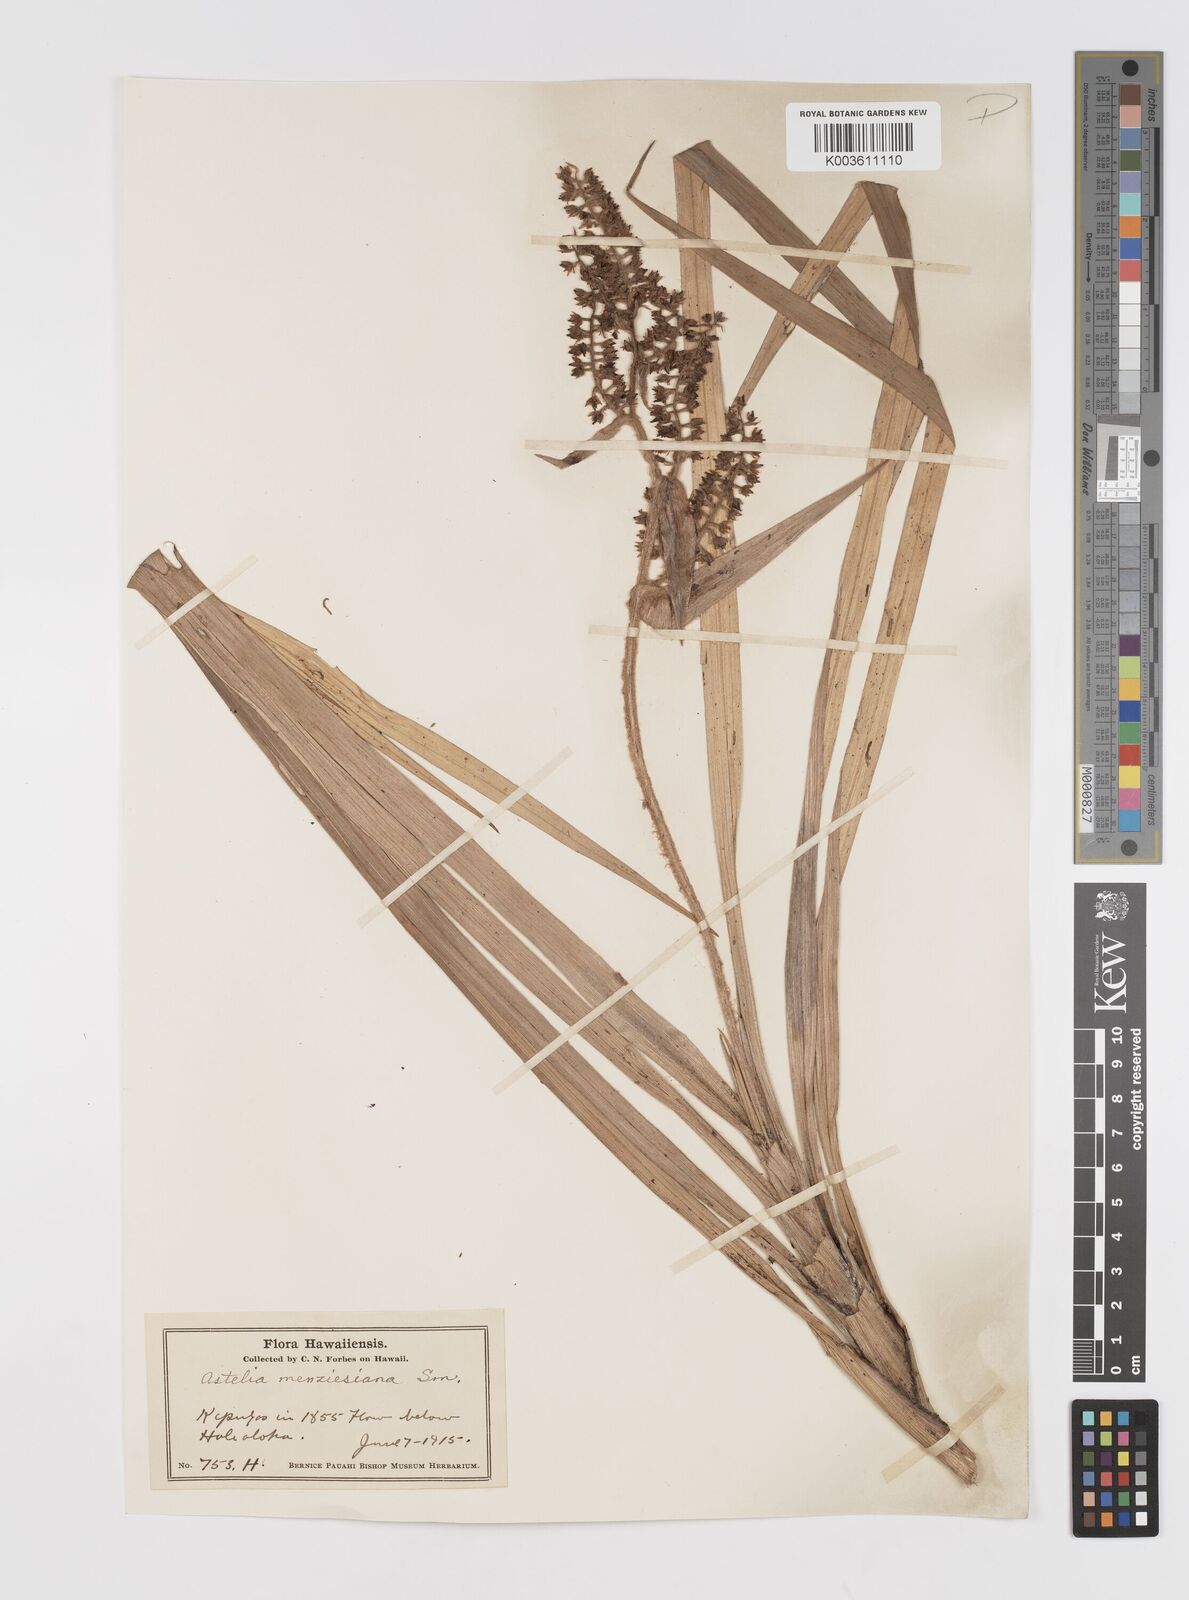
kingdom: Plantae
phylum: Tracheophyta
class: Liliopsida
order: Asparagales
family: Asteliaceae
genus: Astelia
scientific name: Astelia menziesiana
